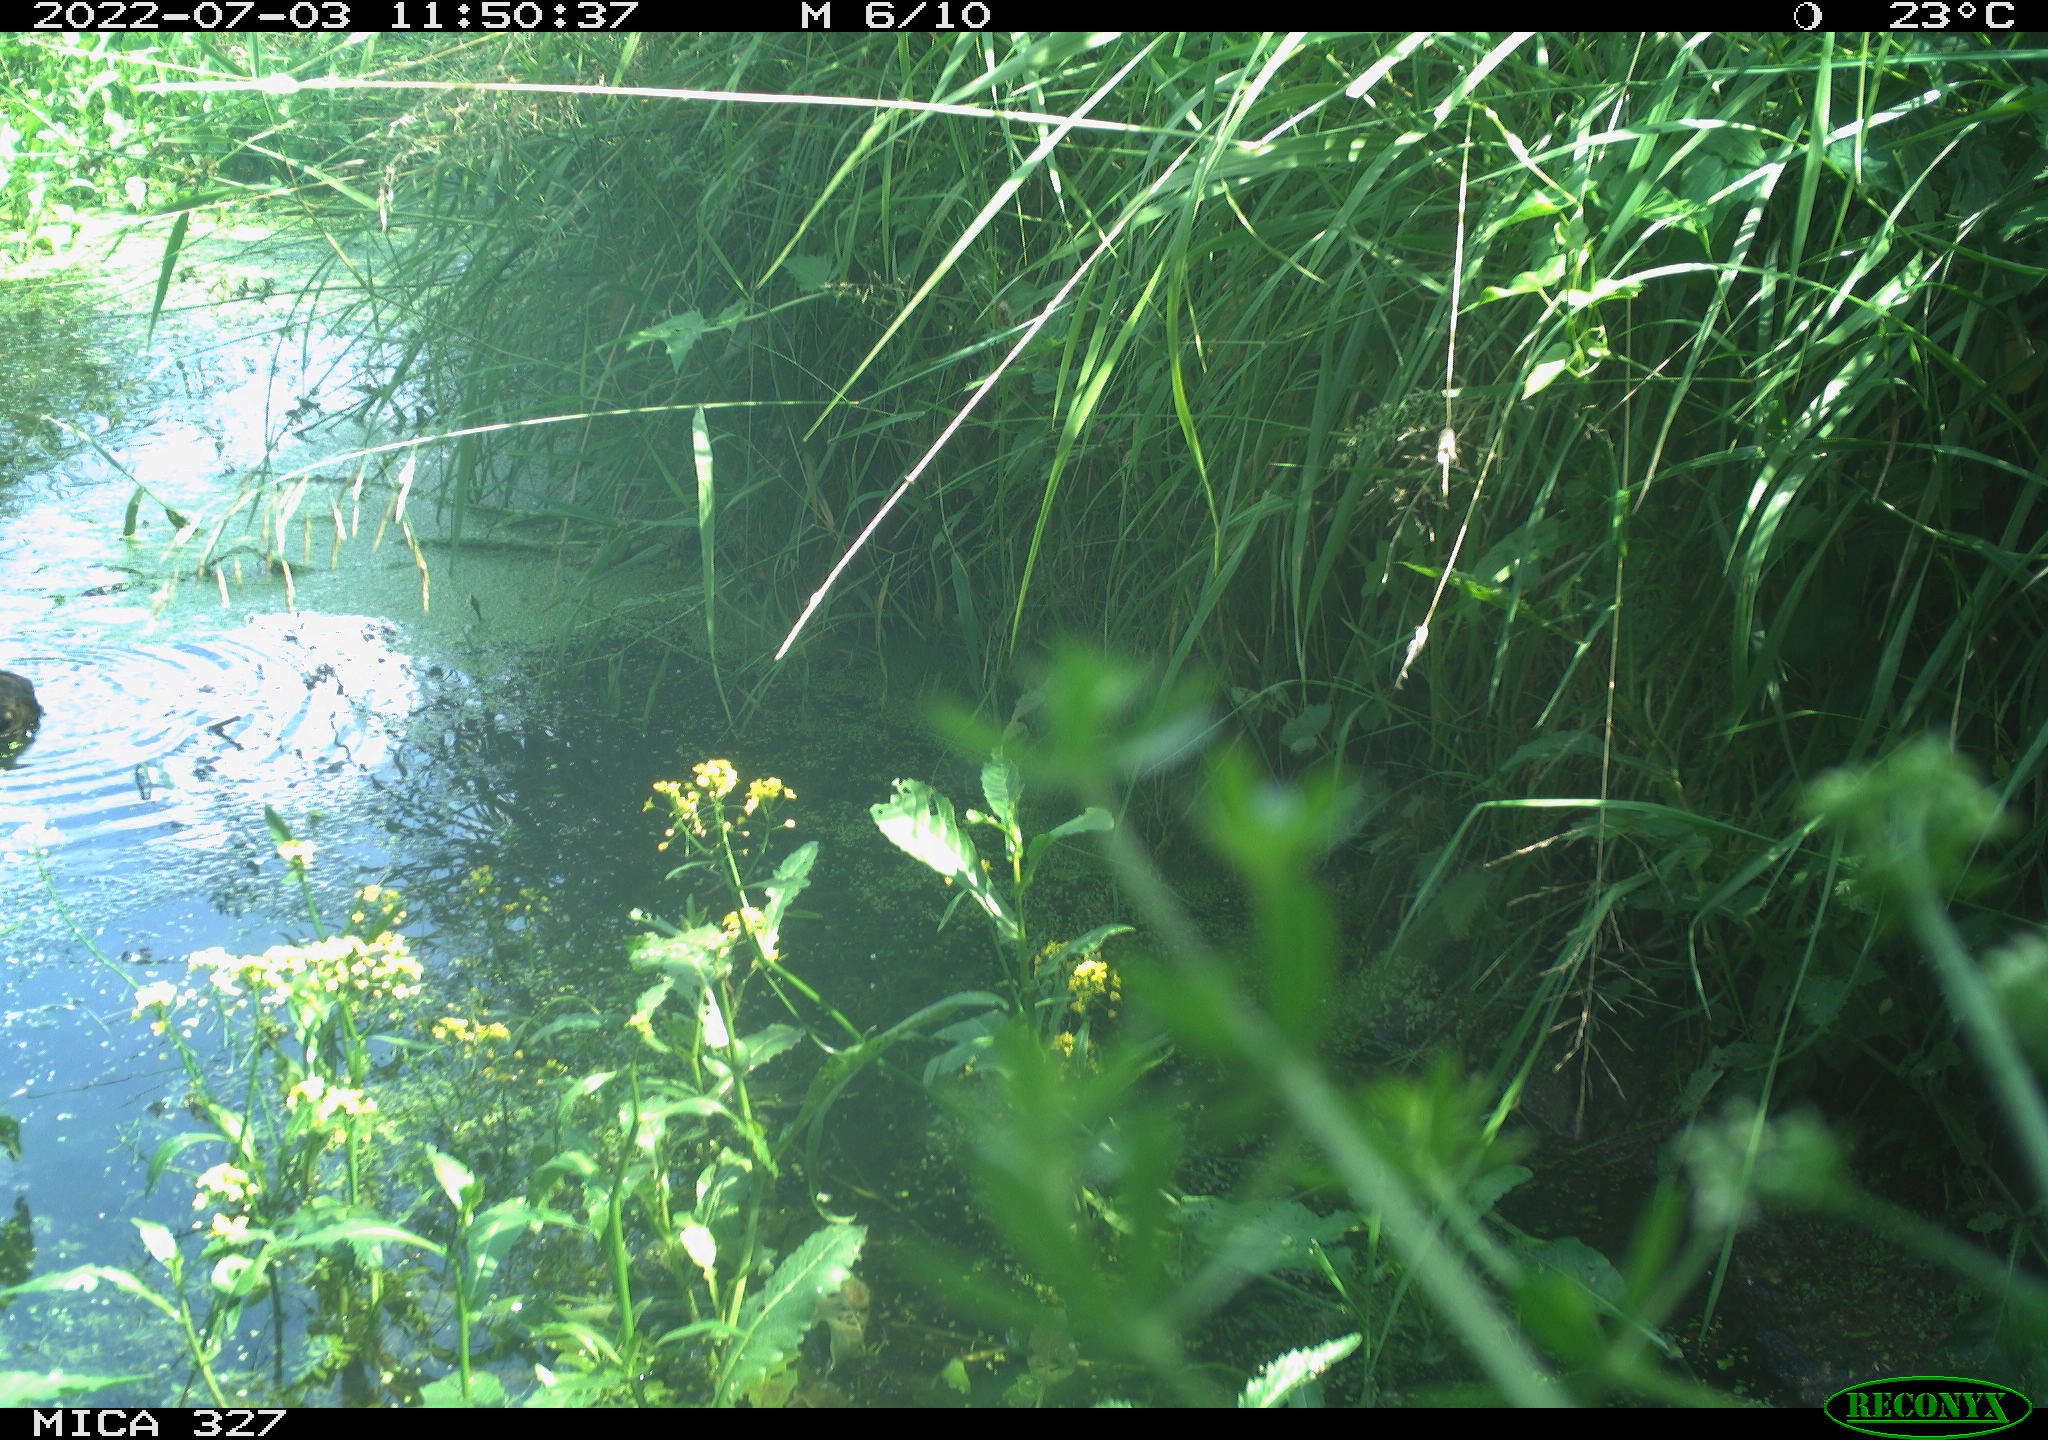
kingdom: Animalia
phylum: Chordata
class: Aves
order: Gruiformes
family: Rallidae
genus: Gallinula
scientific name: Gallinula chloropus
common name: Common moorhen
